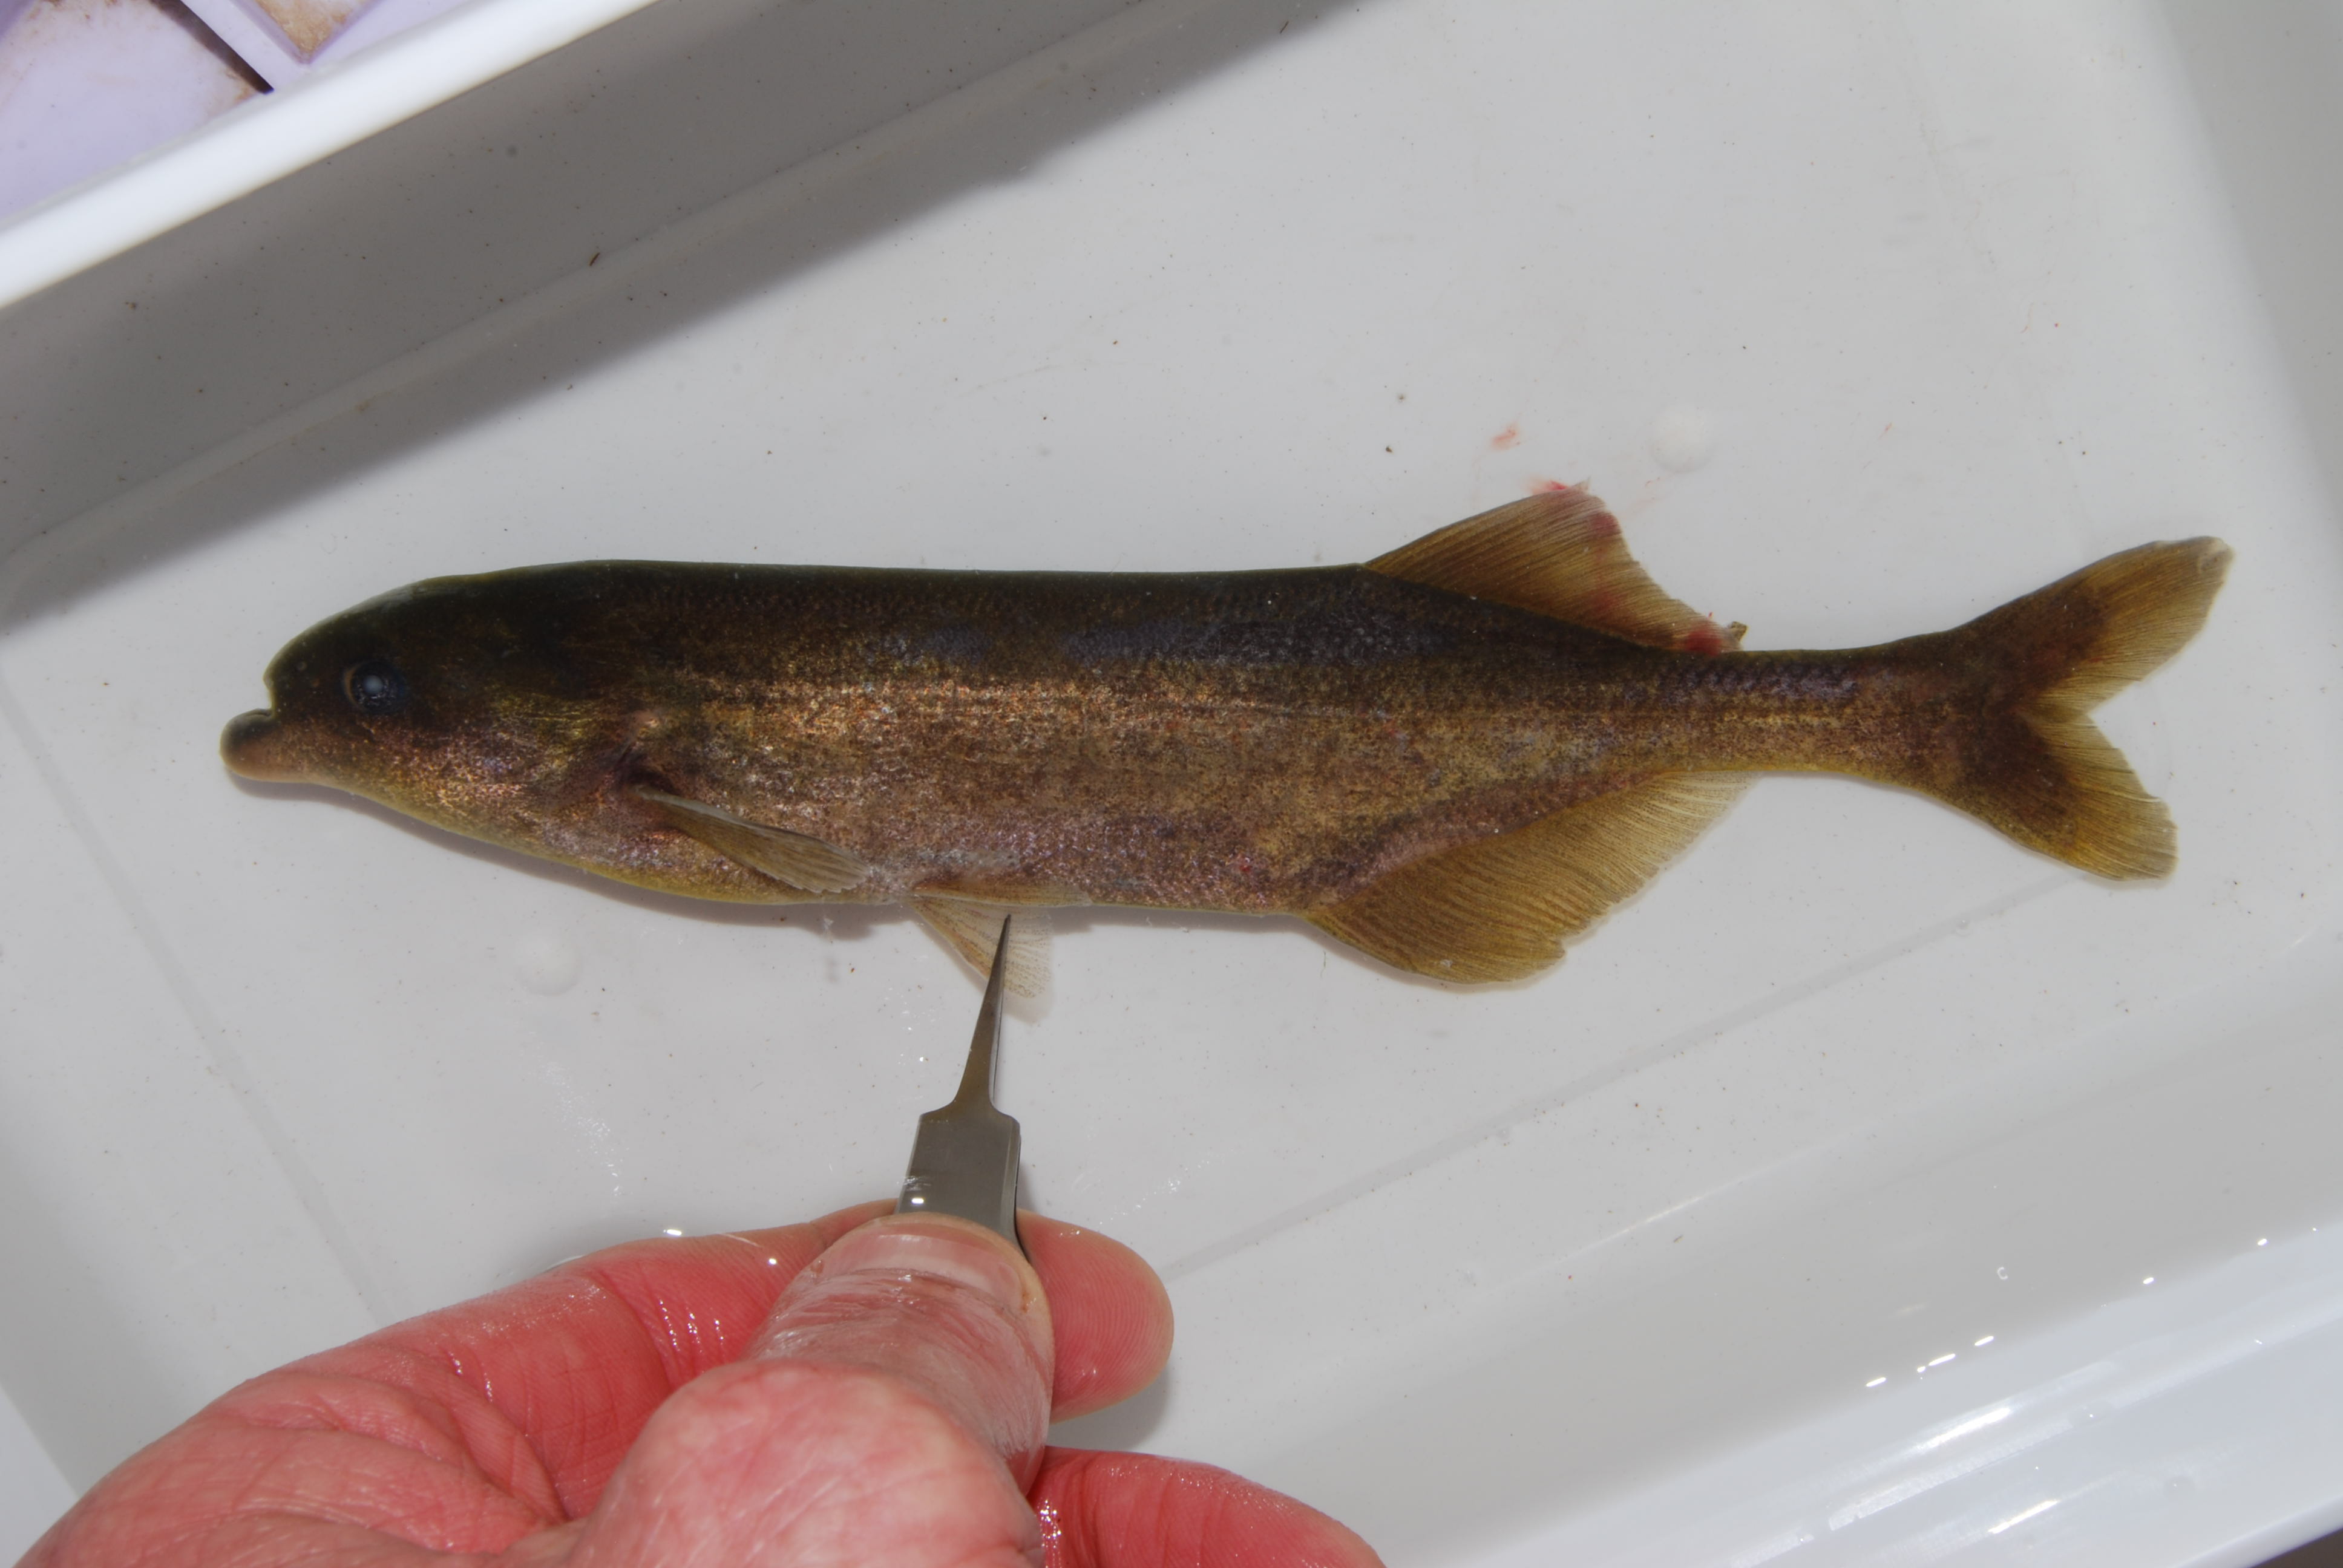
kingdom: Animalia
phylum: Chordata
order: Osteoglossiformes
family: Mormyridae
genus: Marcusenius
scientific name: Marcusenius pongolensis
